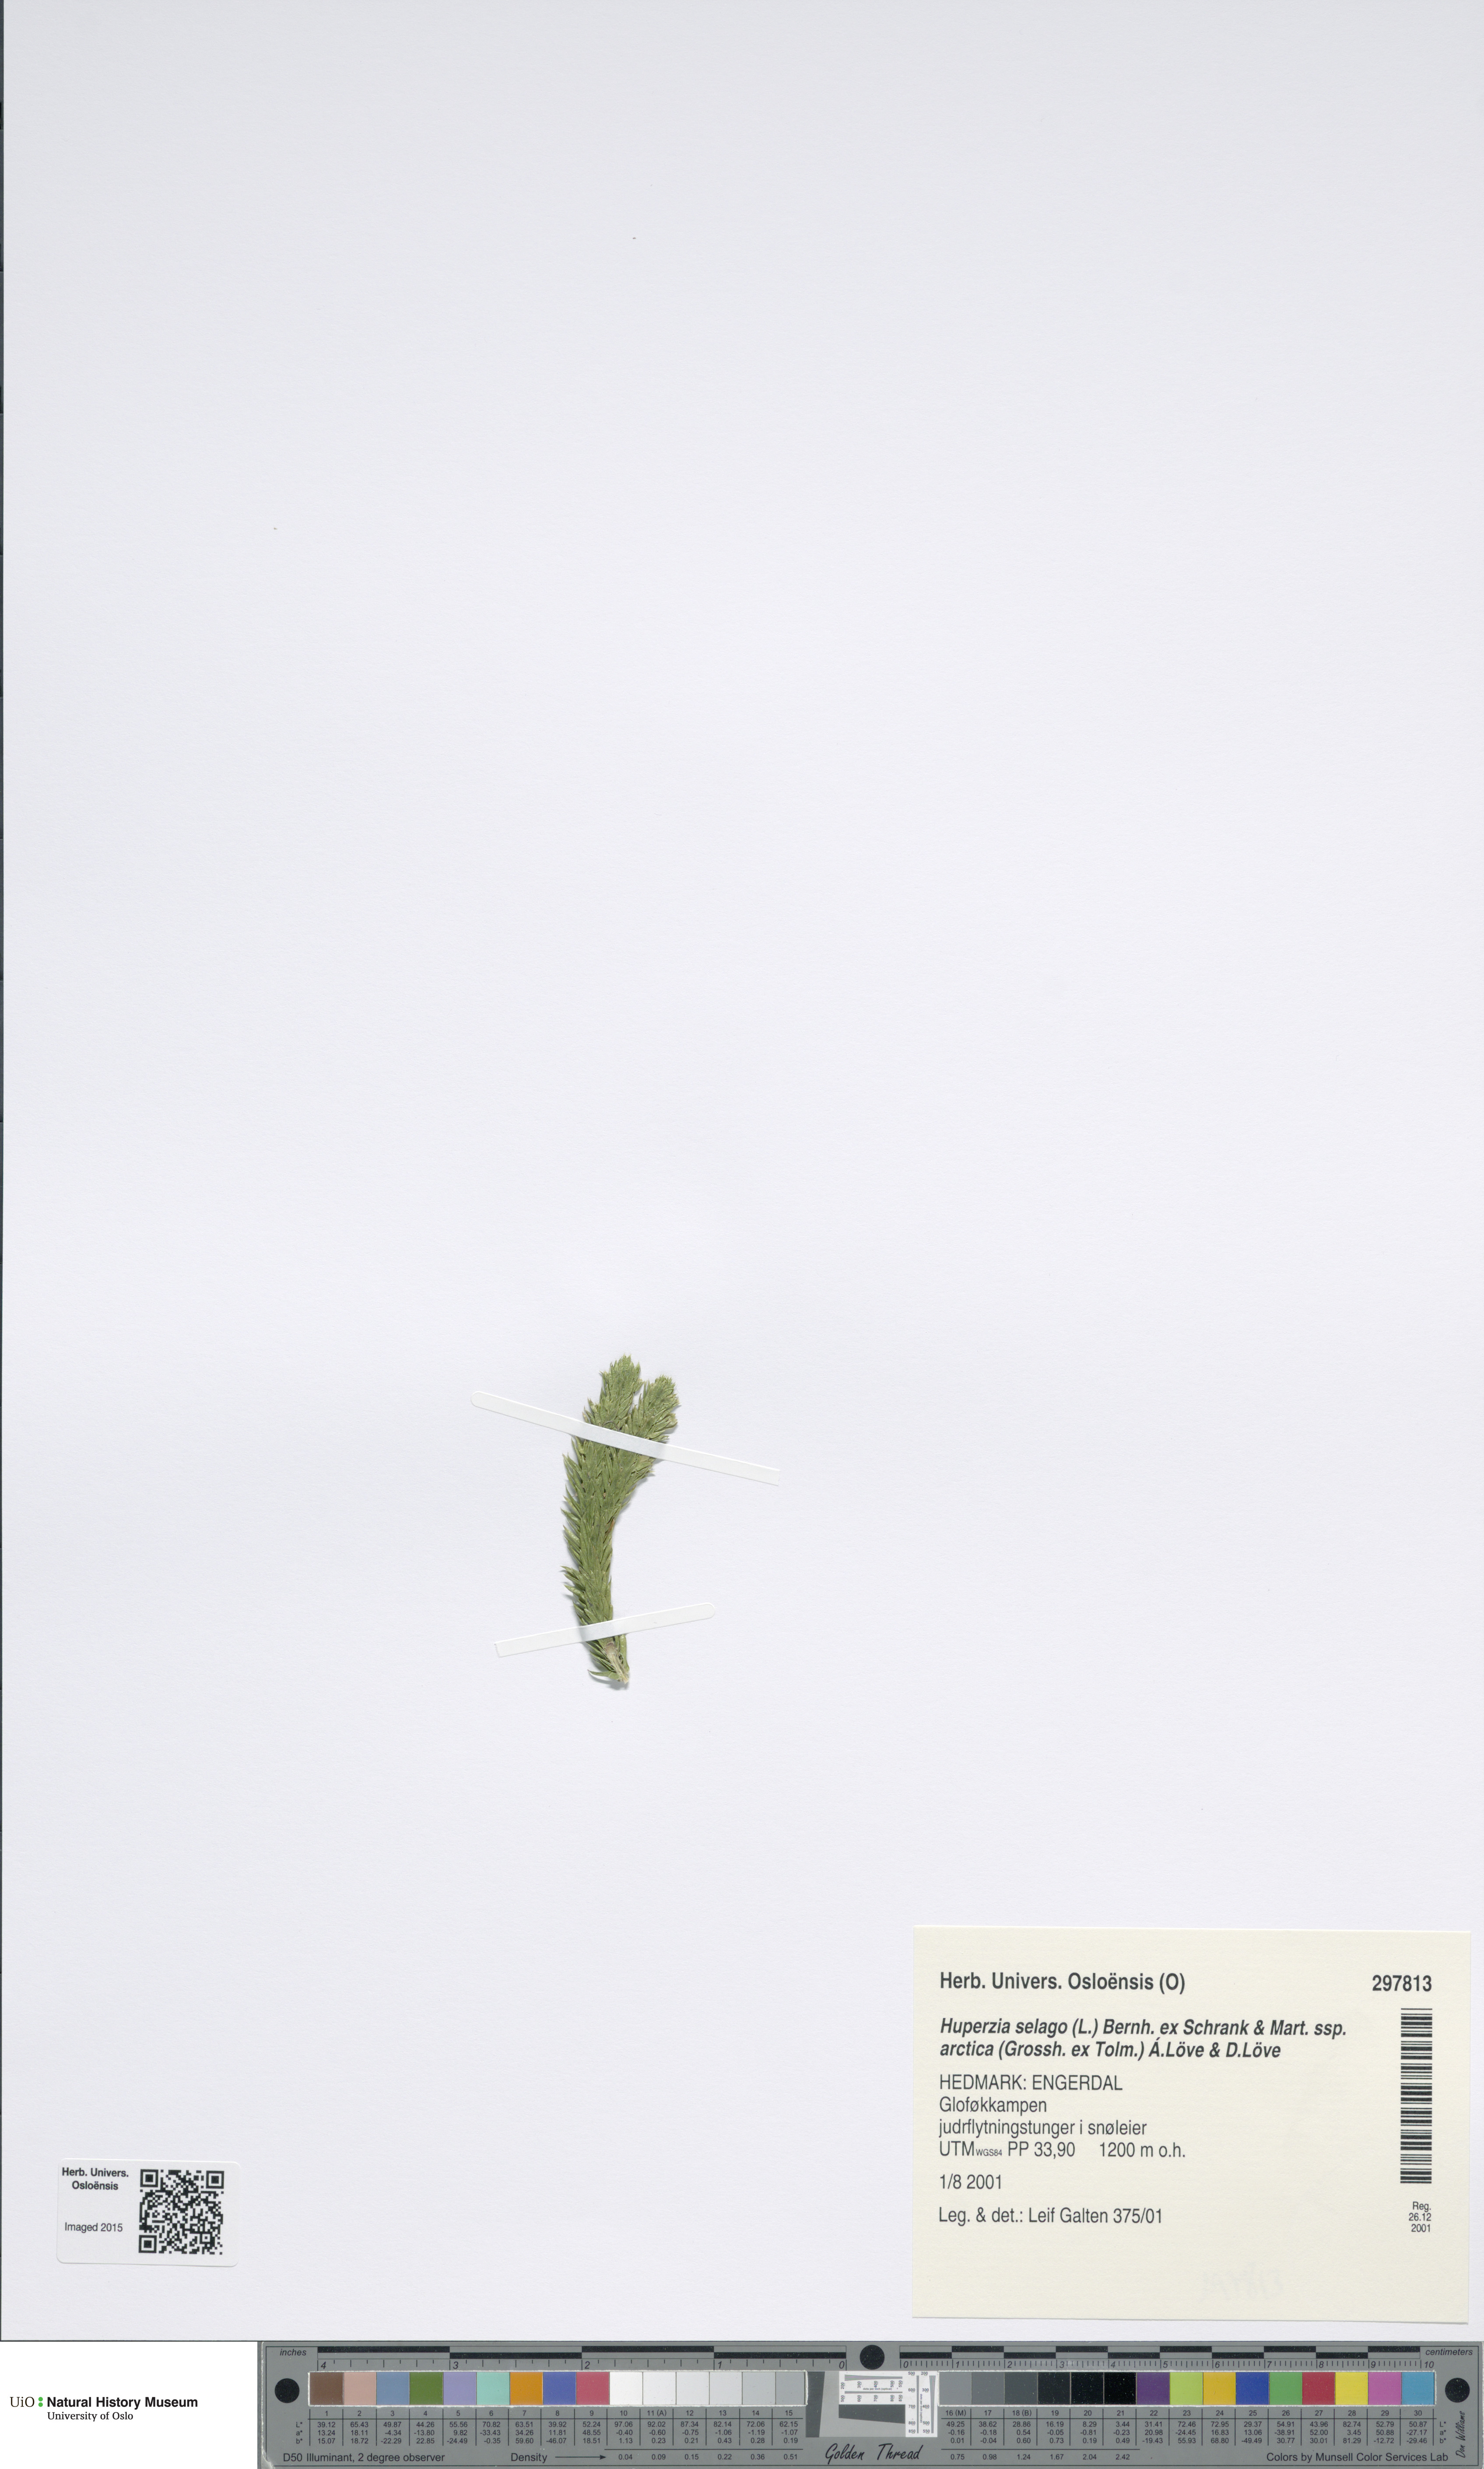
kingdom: Plantae
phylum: Tracheophyta
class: Lycopodiopsida
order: Lycopodiales
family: Lycopodiaceae
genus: Huperzia
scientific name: Huperzia selago
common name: Northern firmoss
